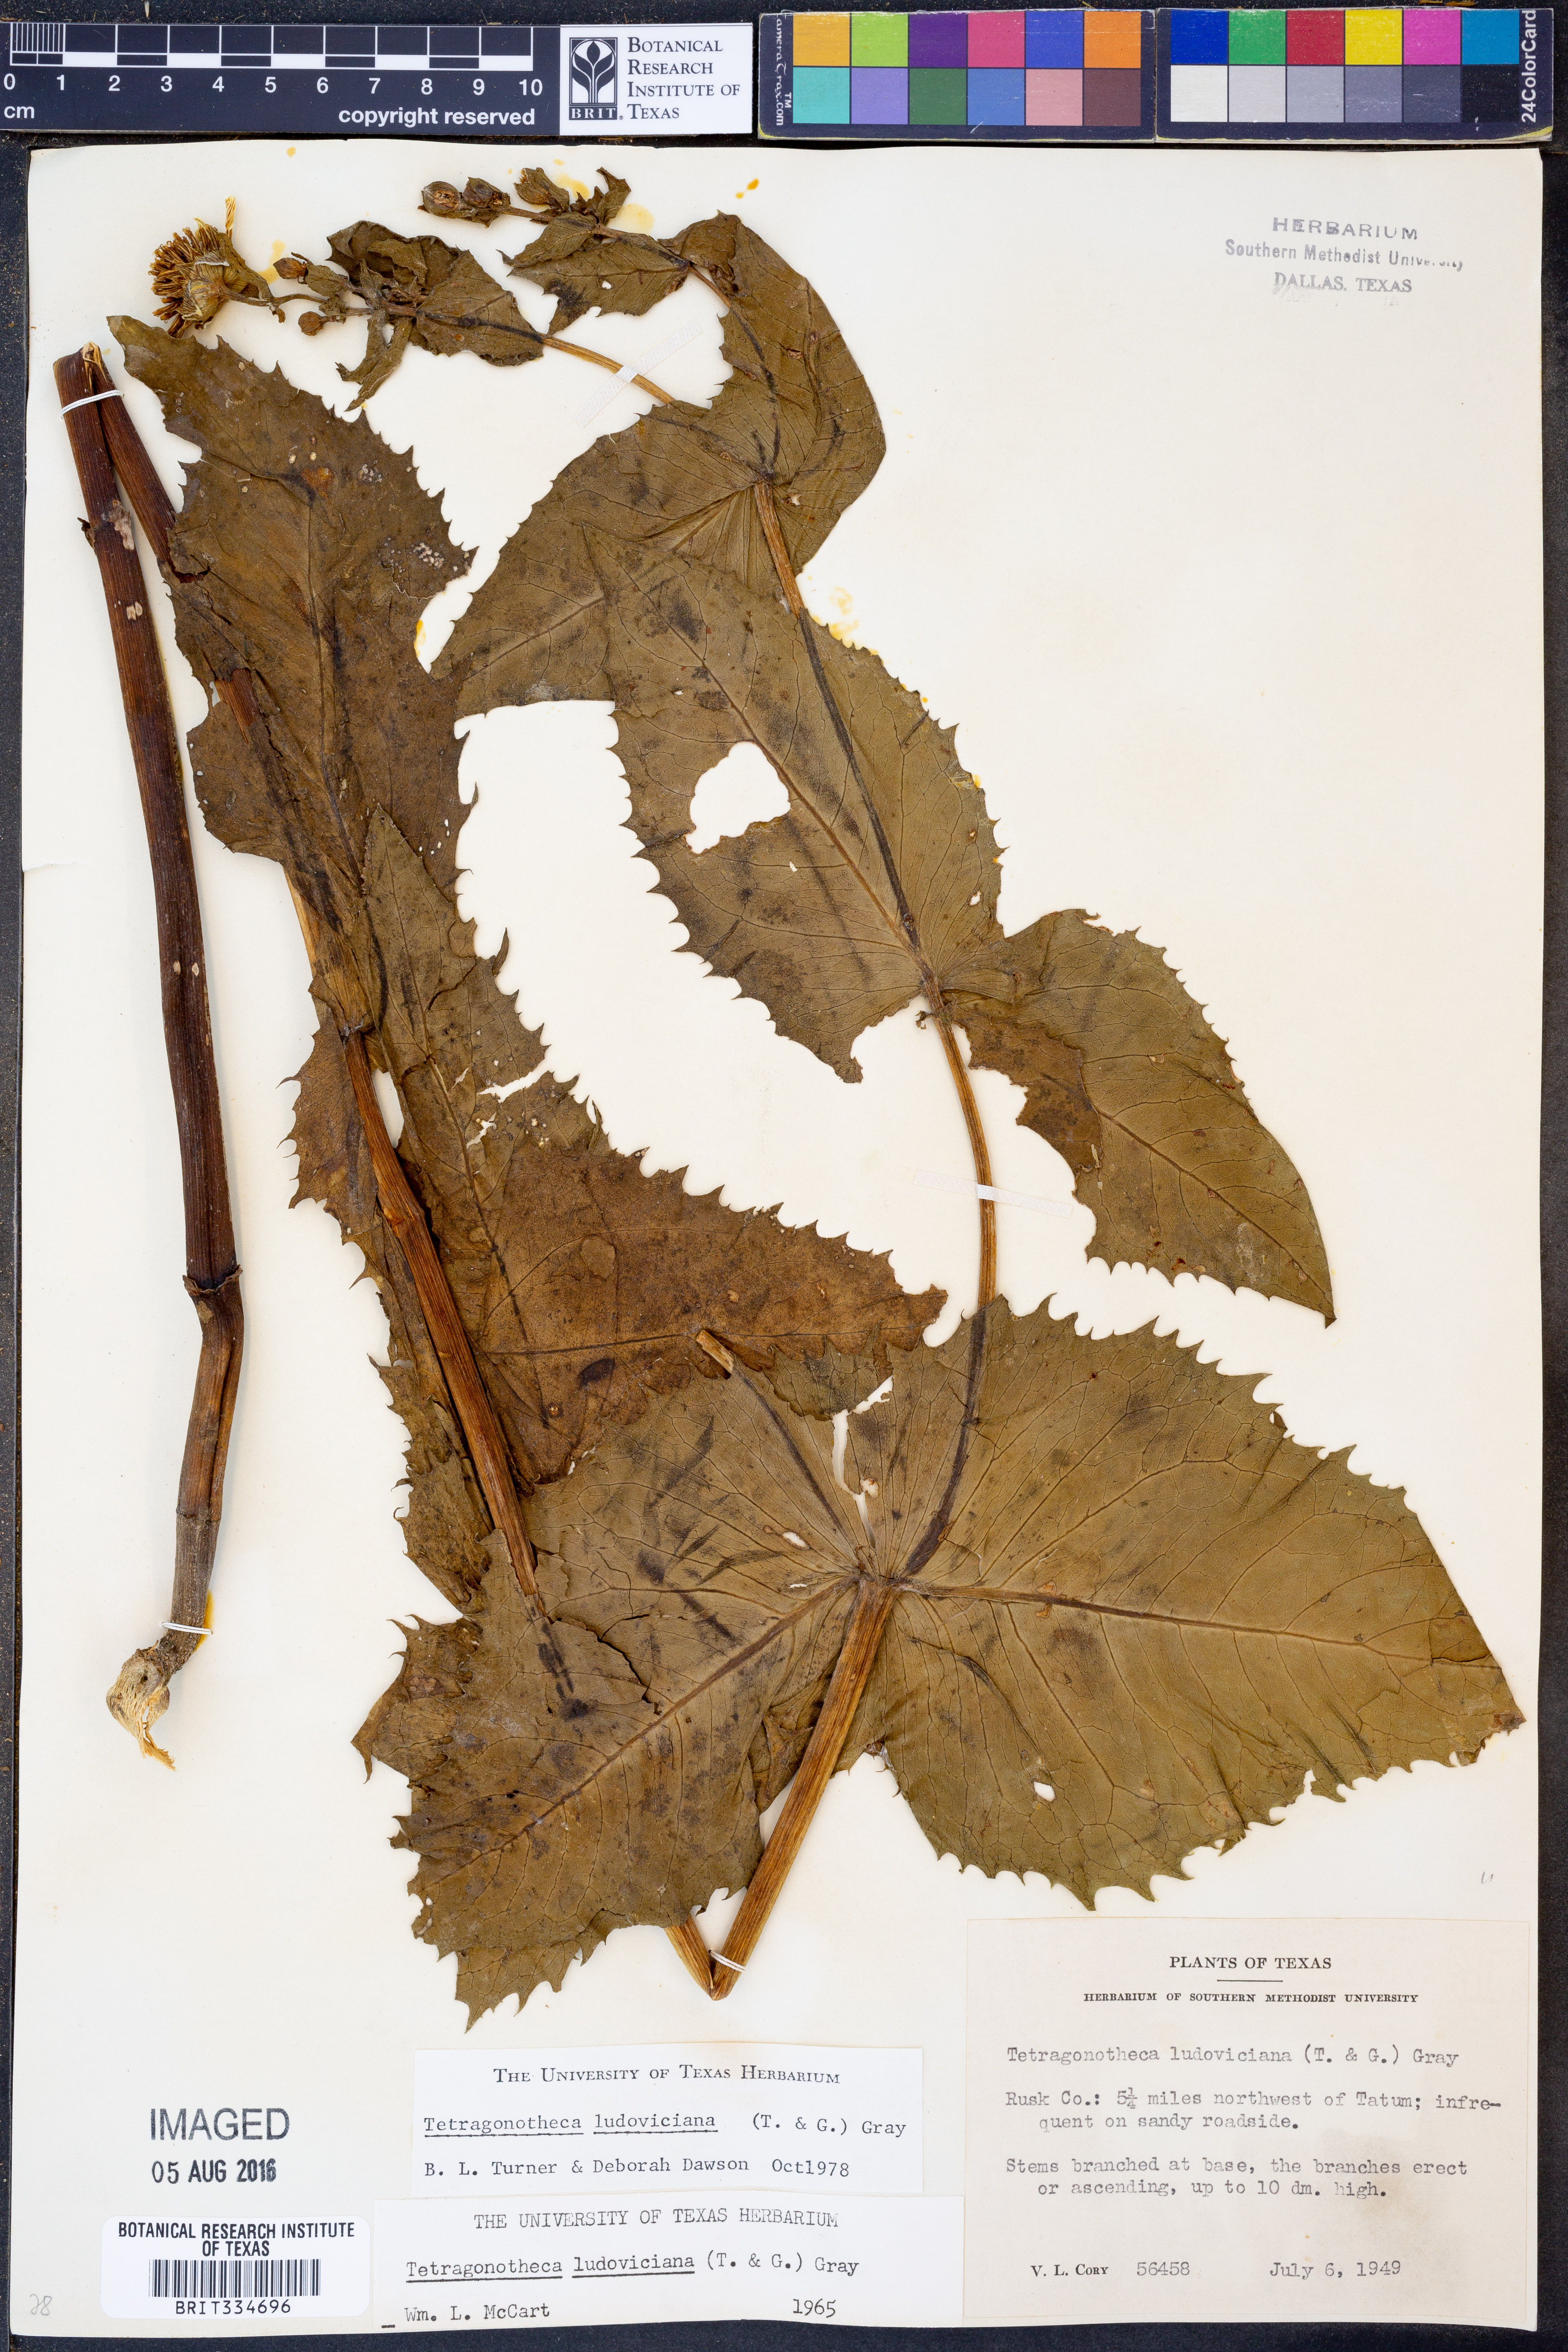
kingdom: Plantae
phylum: Tracheophyta
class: Magnoliopsida
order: Asterales
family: Asteraceae
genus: Tetragonotheca
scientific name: Tetragonotheca ludoviciana
